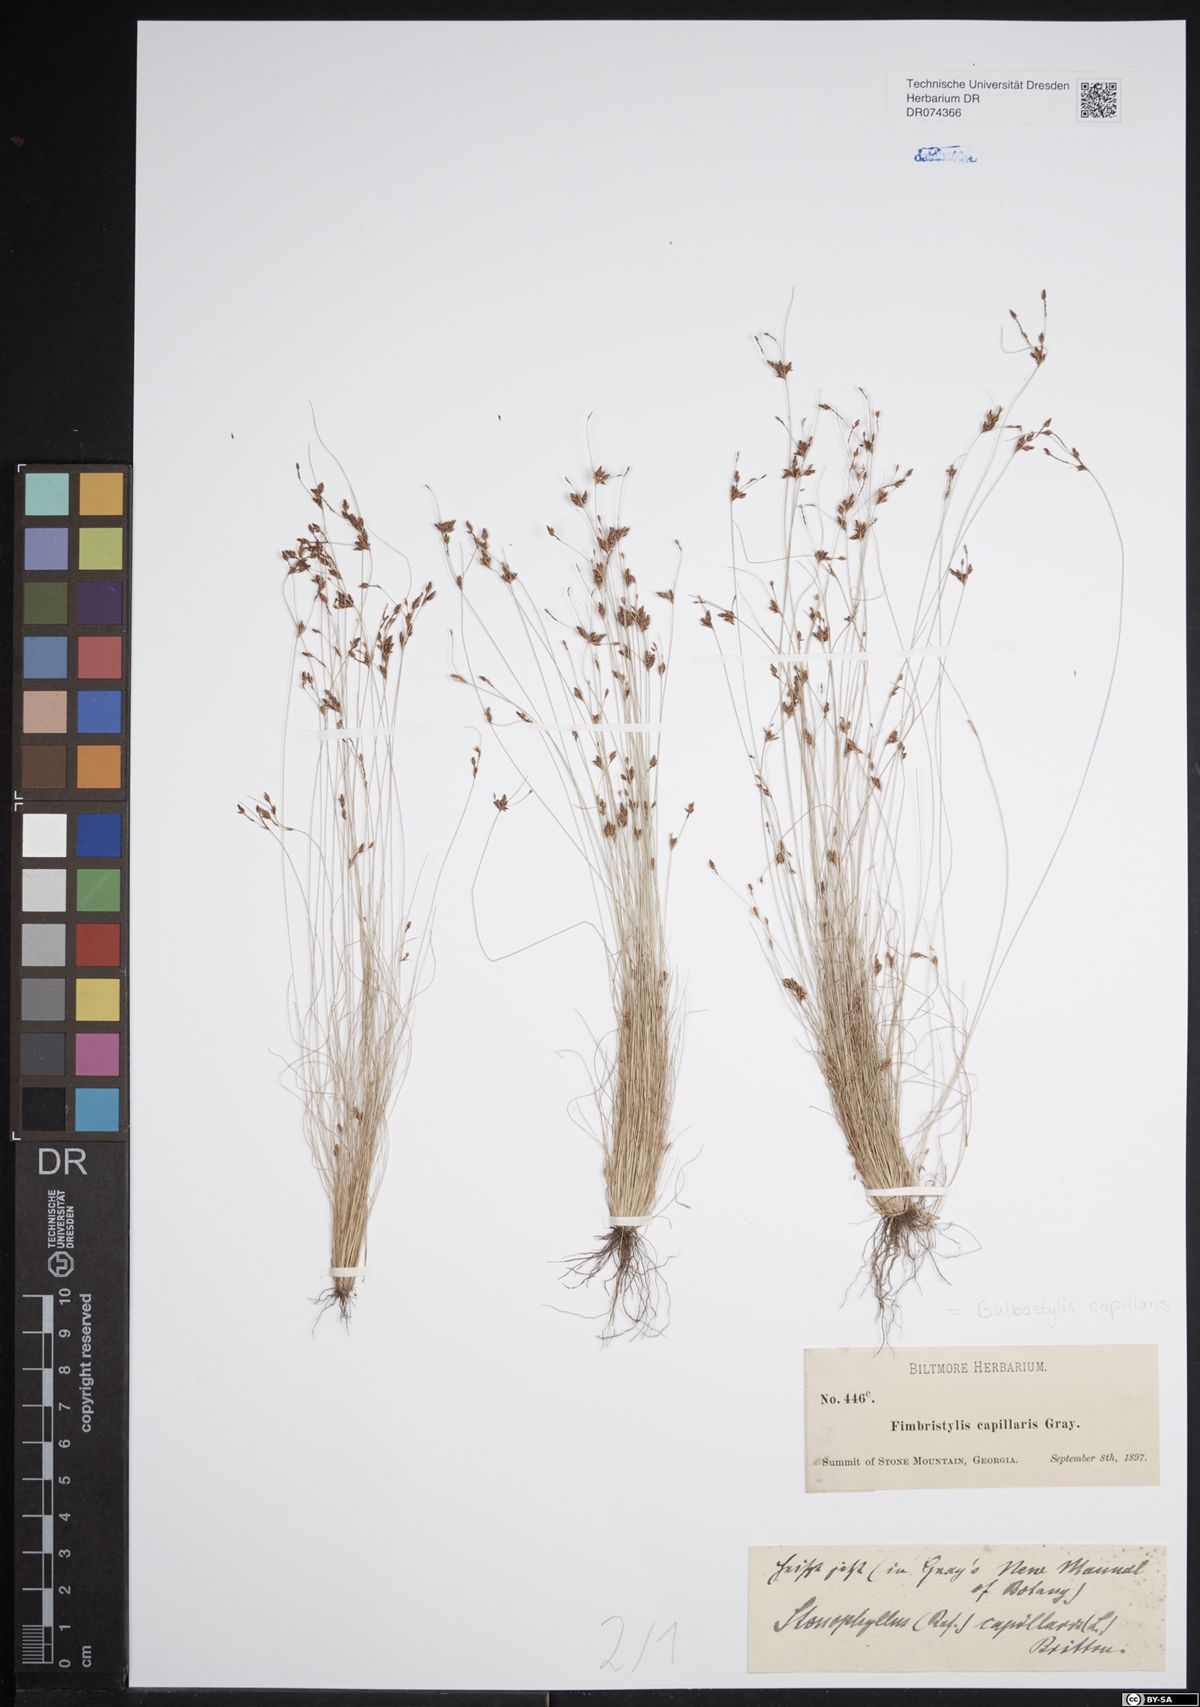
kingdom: Plantae
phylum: Tracheophyta
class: Liliopsida
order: Poales
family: Cyperaceae
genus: Bulbostylis
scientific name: Bulbostylis capillaris
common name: Densetuft hairsedge
